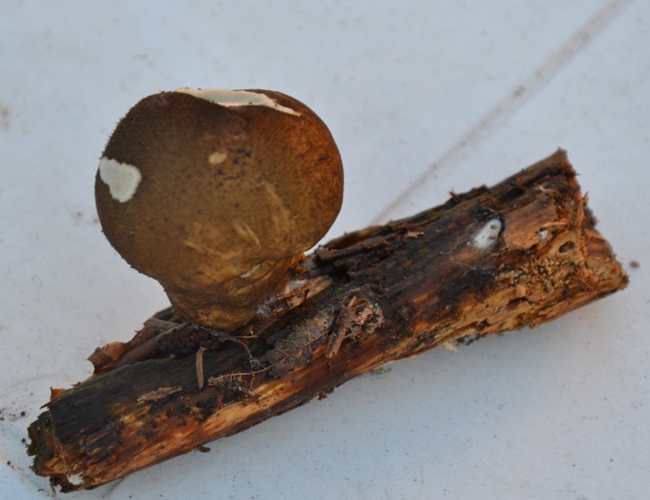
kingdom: Fungi
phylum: Basidiomycota
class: Agaricomycetes
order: Agaricales
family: Agaricaceae
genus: Lycoperdon
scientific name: Lycoperdon
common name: støvbold
